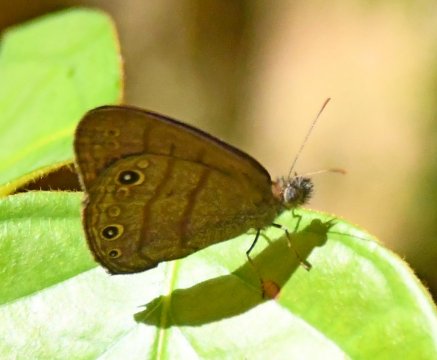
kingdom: Animalia
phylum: Arthropoda
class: Insecta
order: Lepidoptera
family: Nymphalidae
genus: Hermeuptychia
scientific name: Hermeuptychia harmonia
